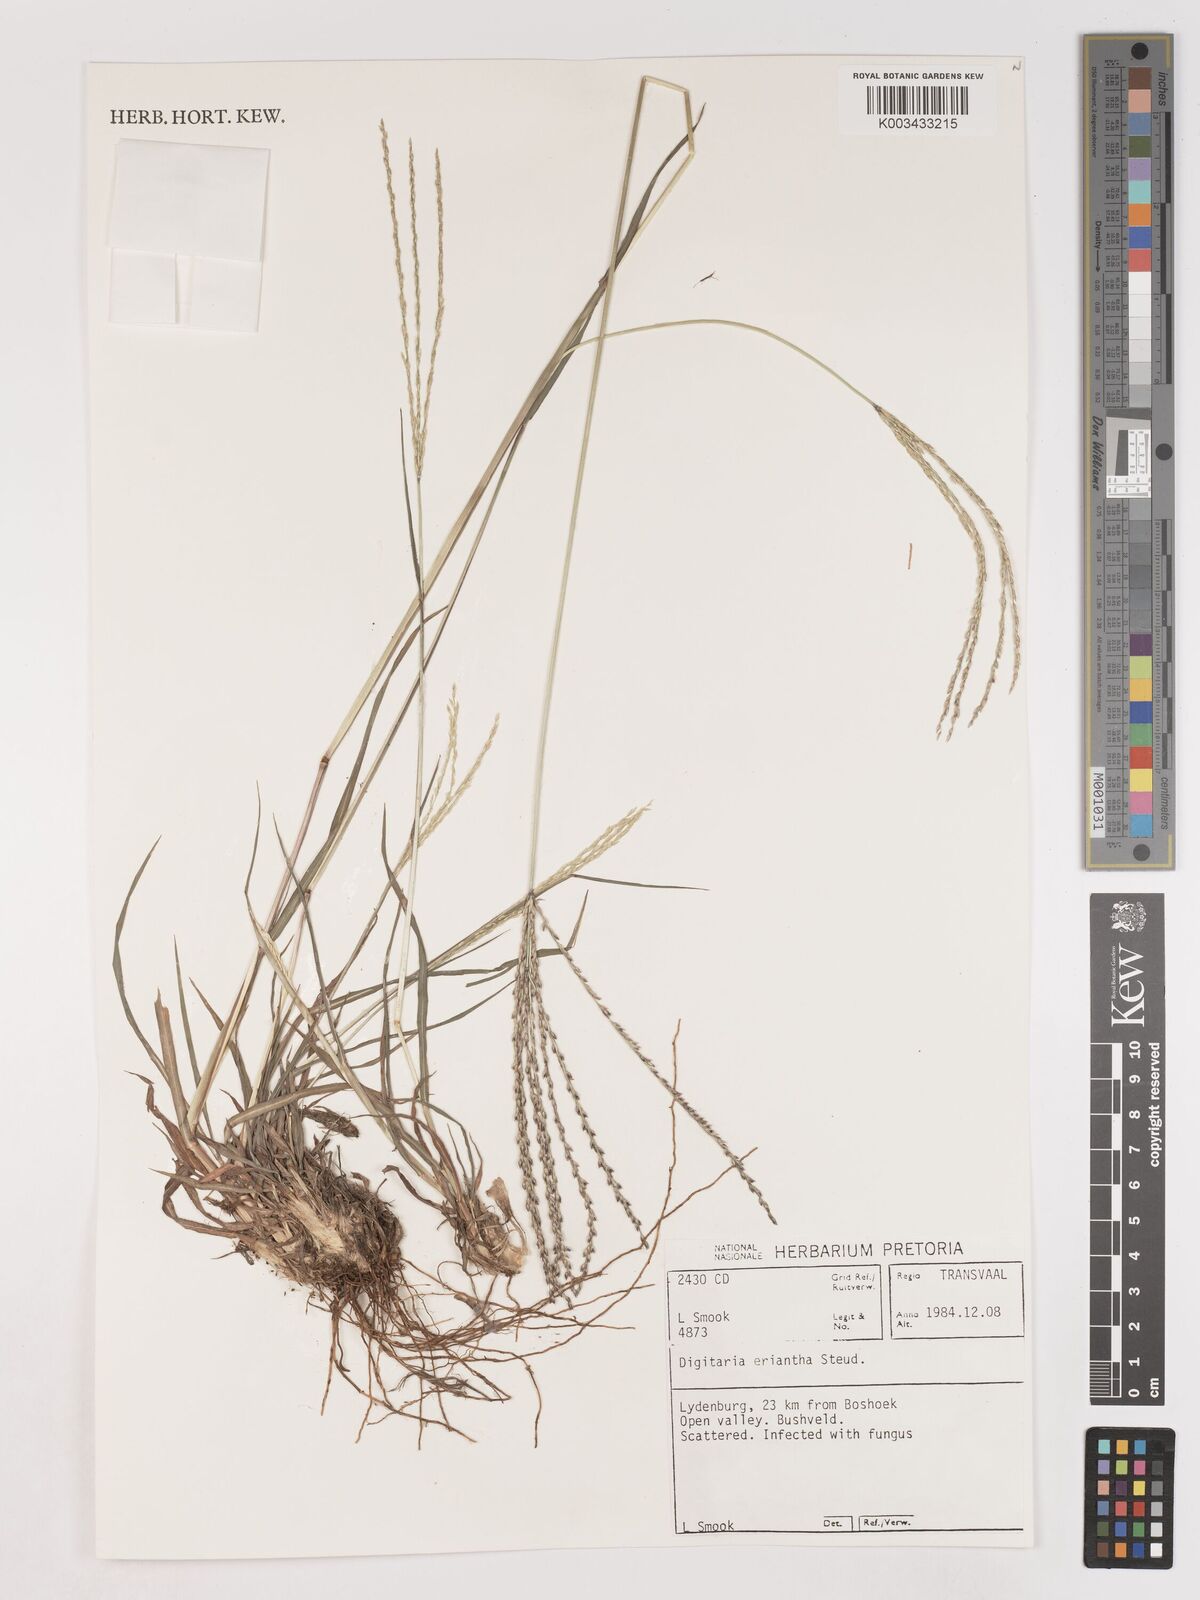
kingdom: Plantae
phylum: Tracheophyta
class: Liliopsida
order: Poales
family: Poaceae
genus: Digitaria
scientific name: Digitaria eriantha
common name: Digitgrass
